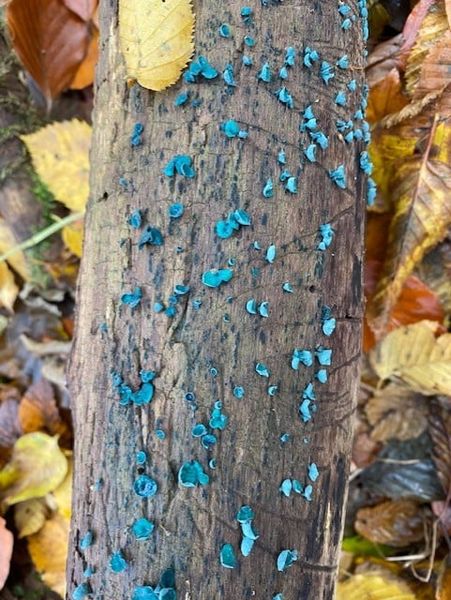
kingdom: Fungi
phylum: Ascomycota
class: Leotiomycetes
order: Helotiales
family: Chlorociboriaceae
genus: Chlorociboria
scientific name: Chlorociboria aeruginascens
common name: almindelig grønskive
